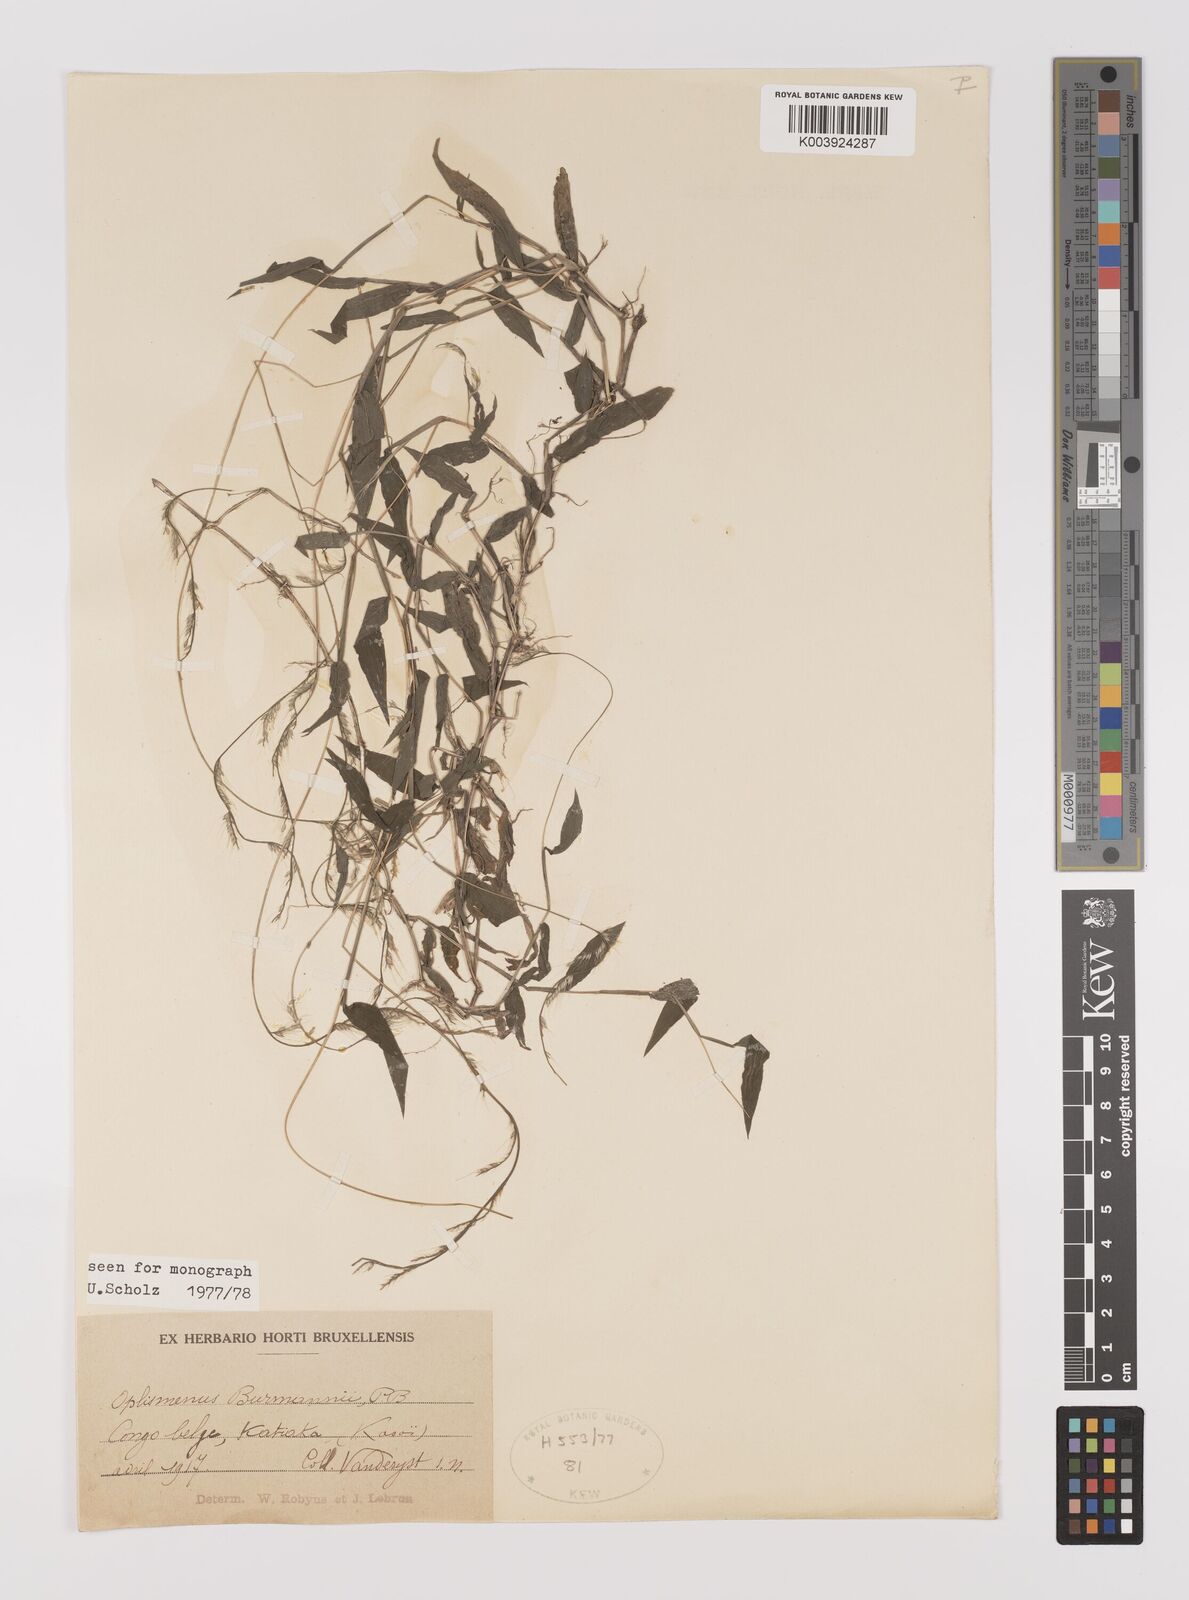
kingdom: Plantae
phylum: Tracheophyta
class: Liliopsida
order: Poales
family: Poaceae
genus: Oplismenus
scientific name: Oplismenus burmanni
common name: Burmann's basketgrass
